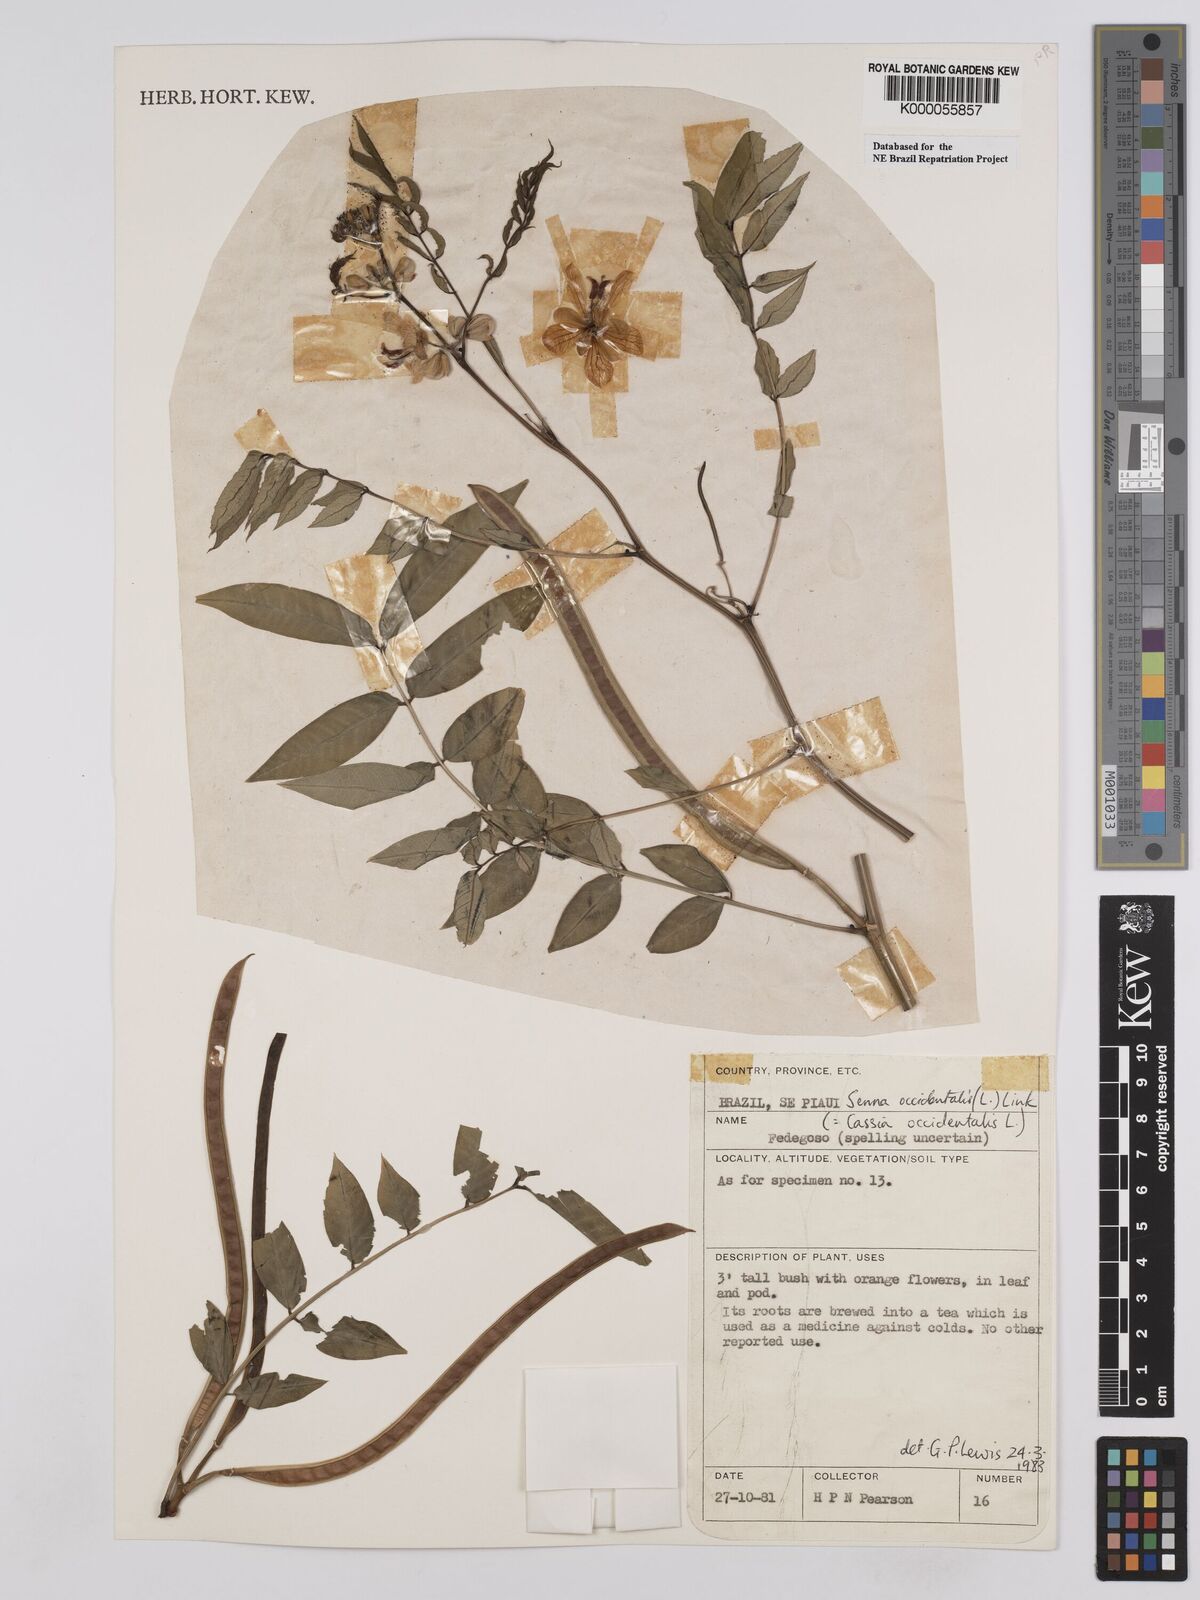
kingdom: Plantae
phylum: Tracheophyta
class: Magnoliopsida
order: Fabales
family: Fabaceae
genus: Senna
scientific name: Senna occidentalis
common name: Septicweed
